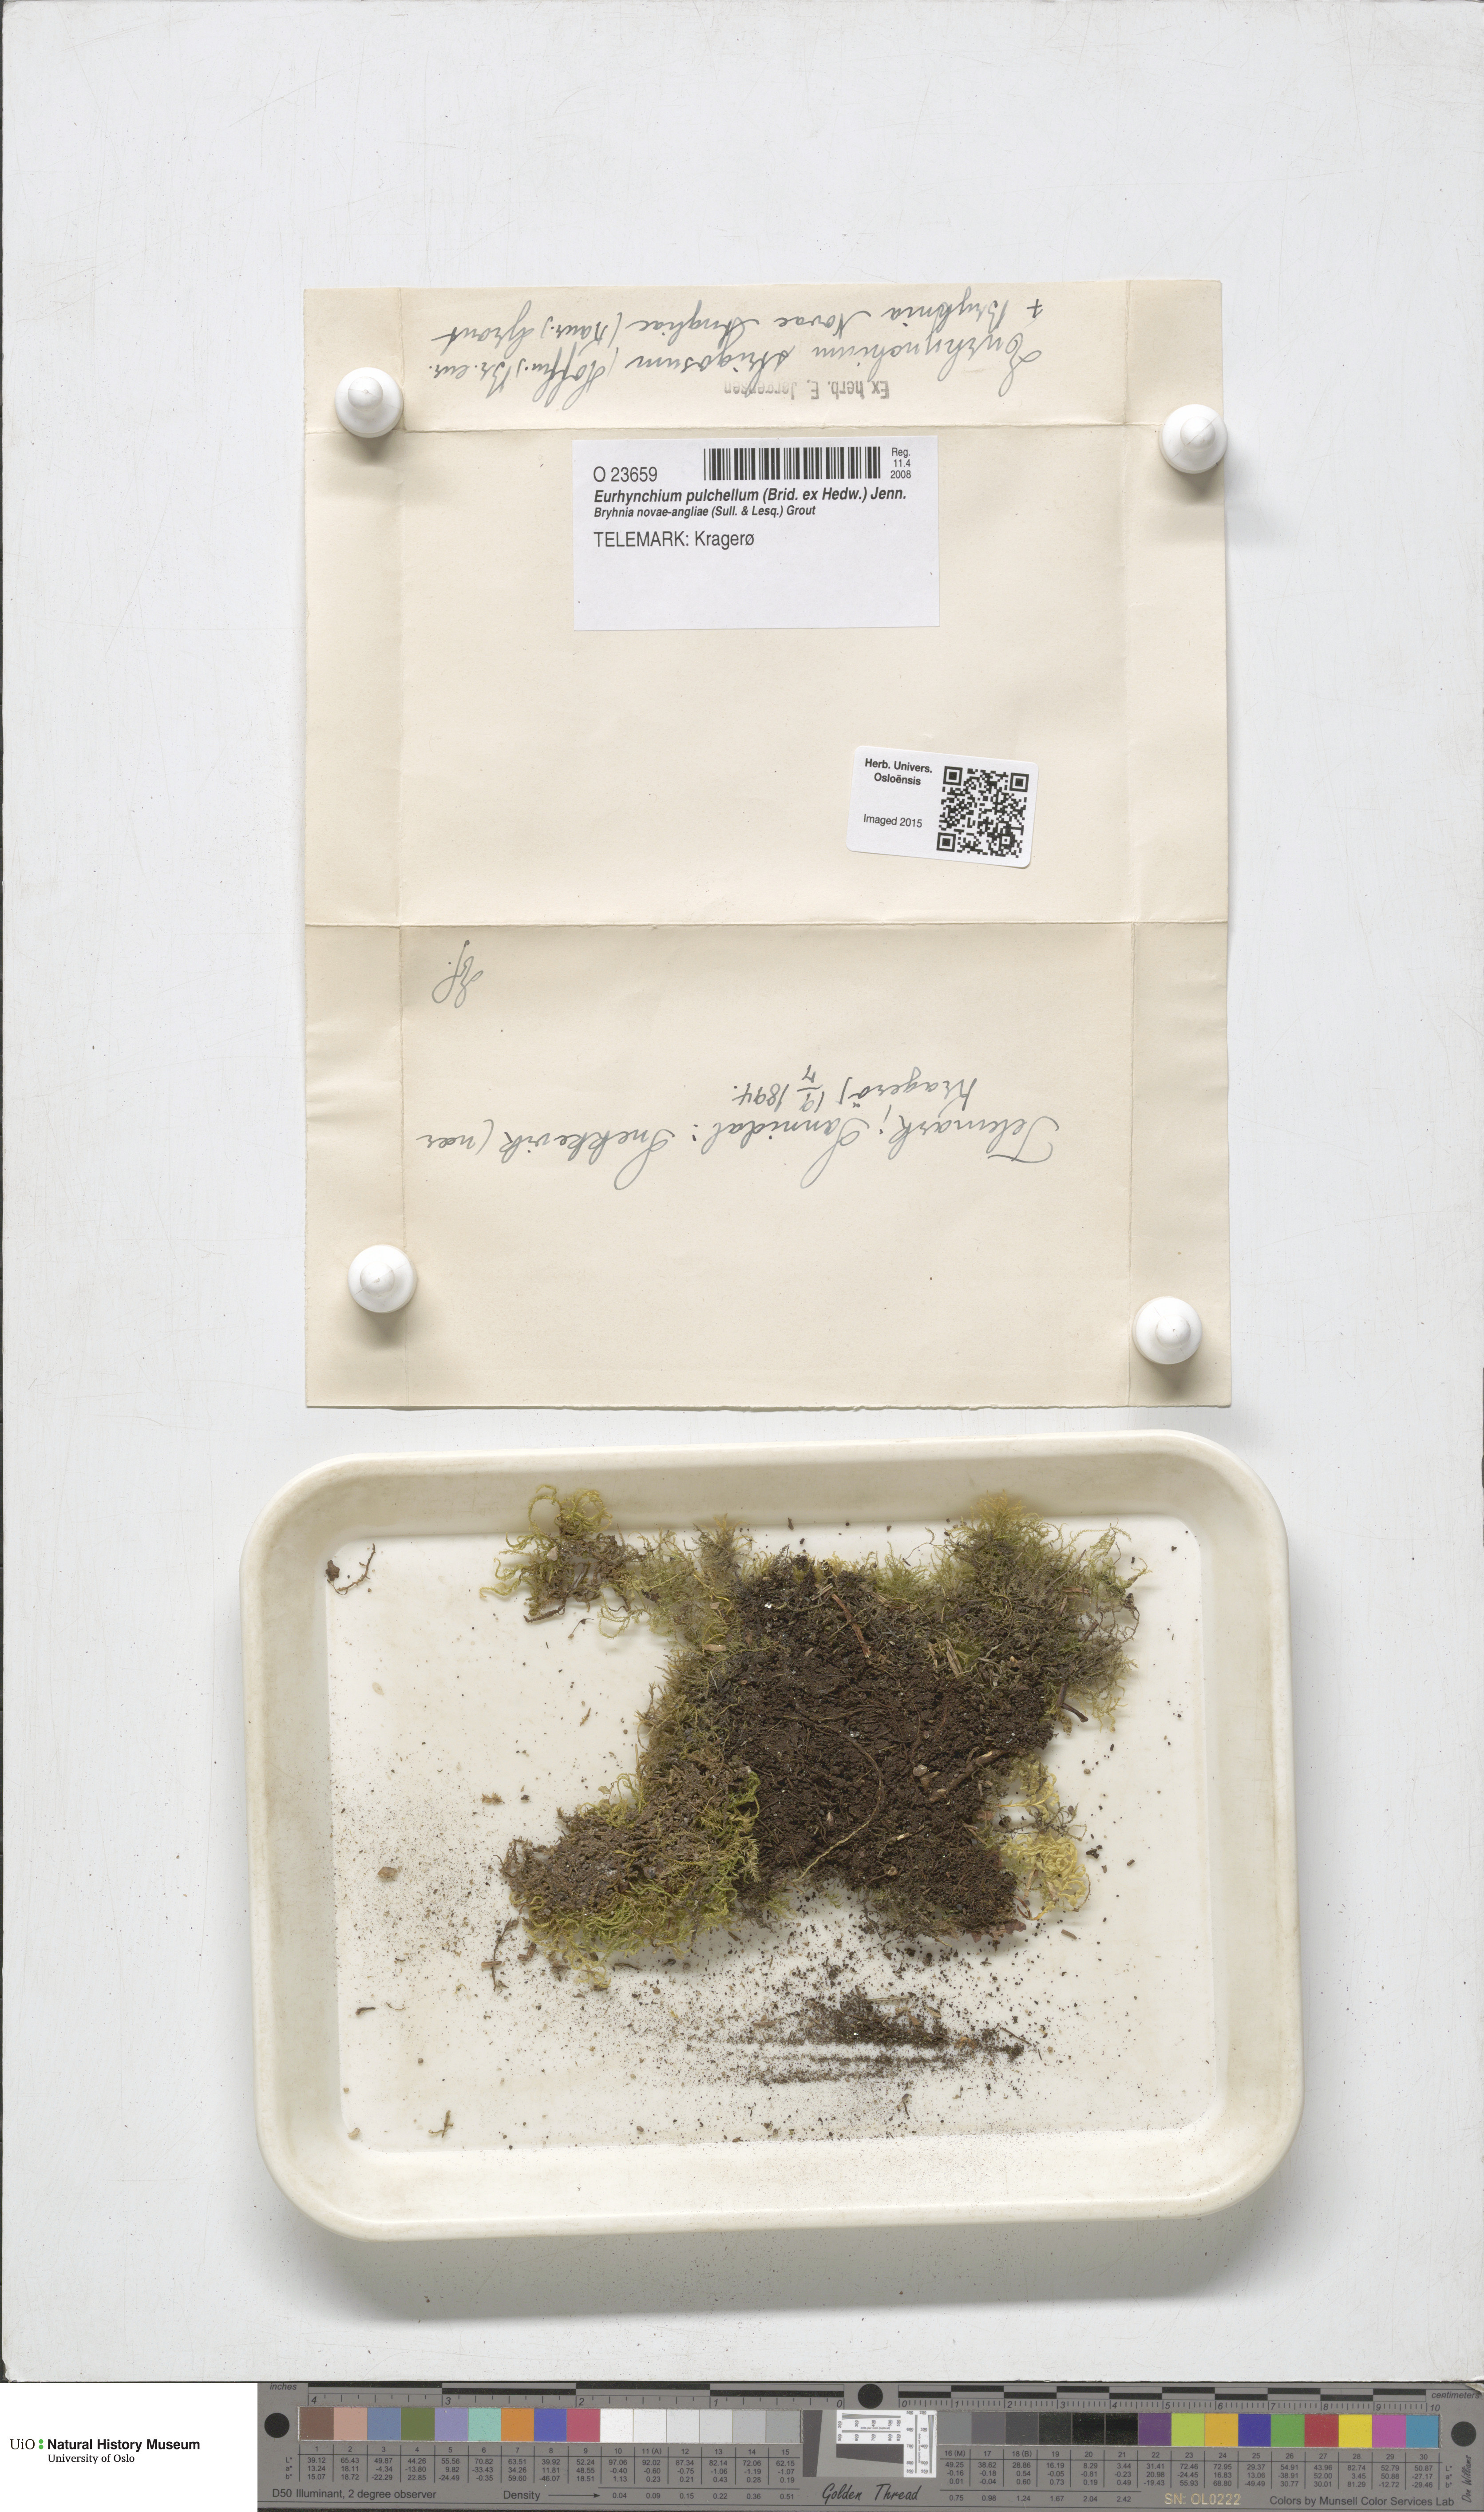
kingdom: Plantae
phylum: Bryophyta
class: Bryopsida
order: Hypnales
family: Brachytheciaceae
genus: Eurhynchiastrum
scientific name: Eurhynchiastrum pulchellum
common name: Elegant beaked moss
